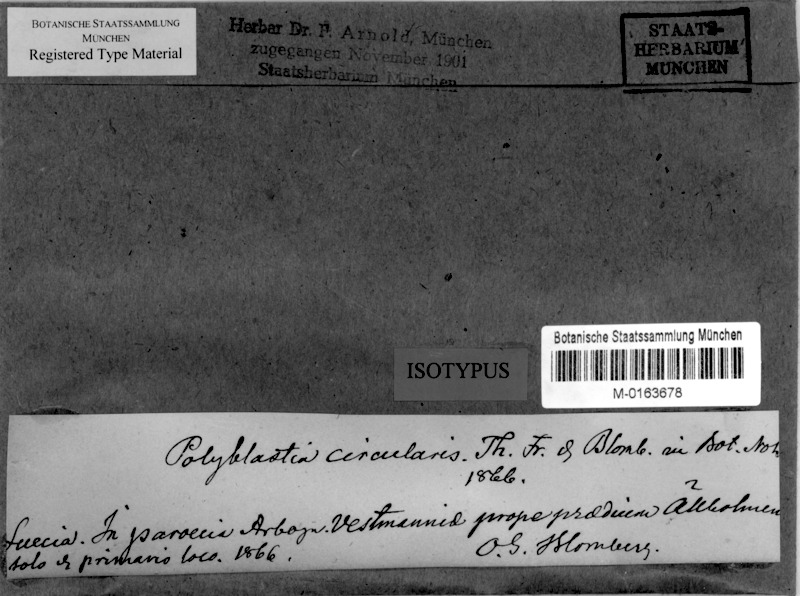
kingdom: Fungi
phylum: Ascomycota
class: Eurotiomycetes
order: Verrucariales
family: Verrucariaceae
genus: Polyblastia
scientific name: Polyblastia circularis
